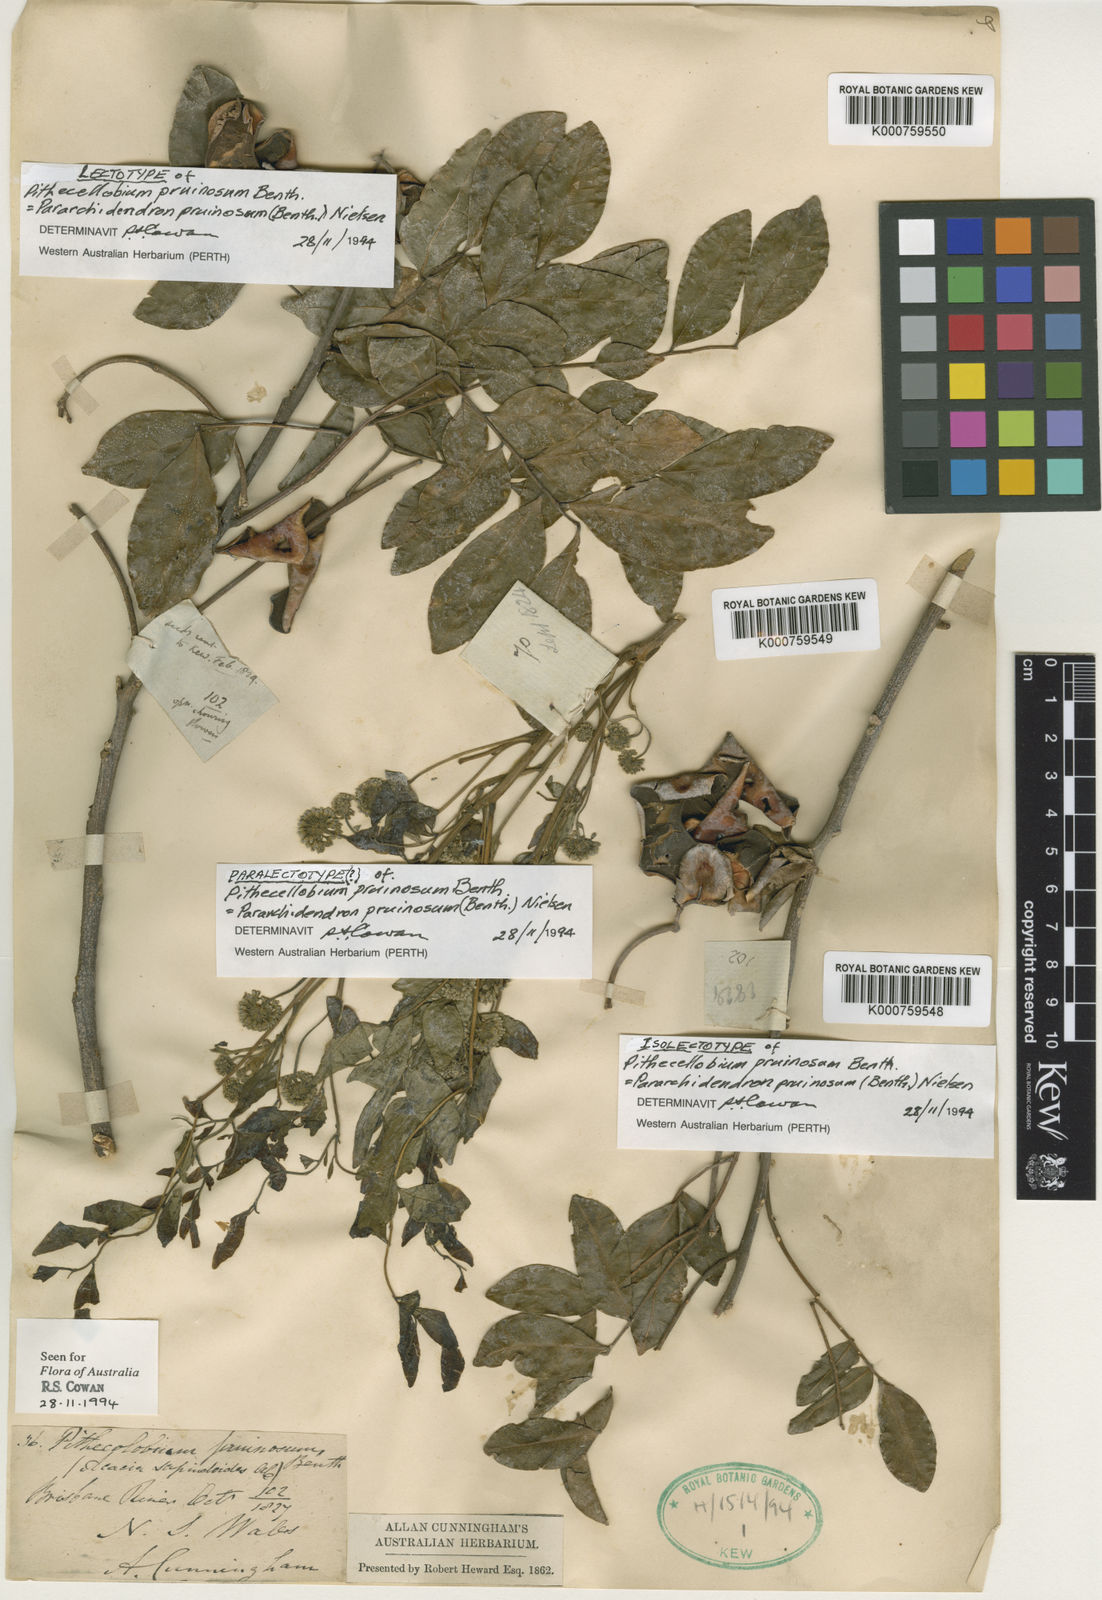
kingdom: Plantae
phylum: Tracheophyta
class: Magnoliopsida
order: Fabales
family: Fabaceae
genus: Pararchidendron
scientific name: Pararchidendron pruinosum
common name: Tulip siris
